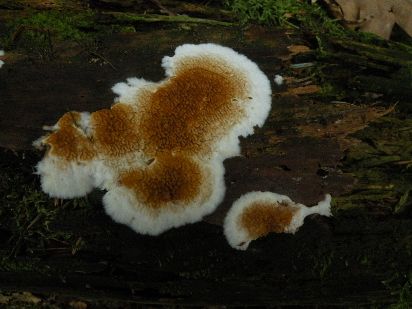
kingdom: Fungi
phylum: Basidiomycota
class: Agaricomycetes
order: Boletales
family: Serpulaceae
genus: Serpula
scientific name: Serpula himantioides
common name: tyndkødet hussvamp
